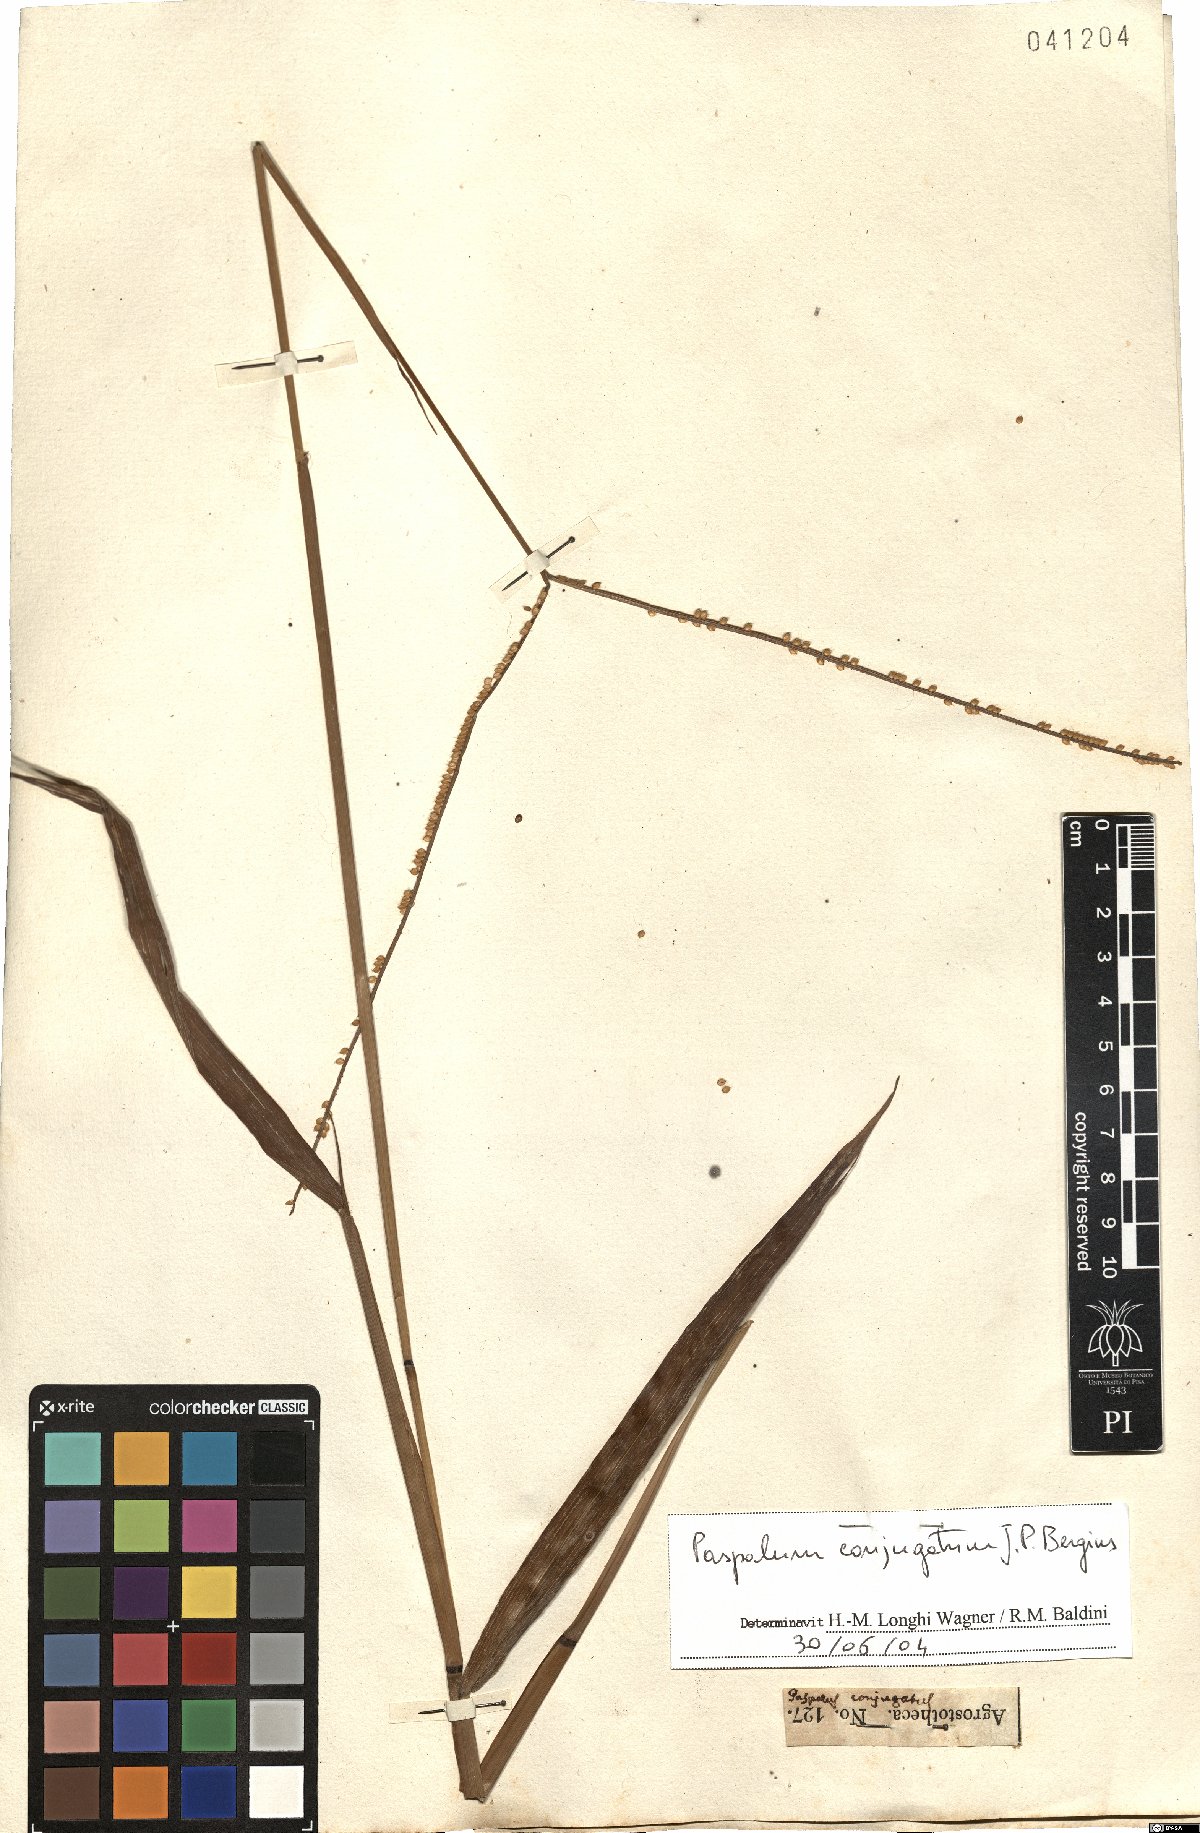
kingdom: Plantae
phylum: Tracheophyta
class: Liliopsida
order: Poales
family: Poaceae
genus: Paspalum
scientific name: Paspalum conjugatum
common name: Hilograss
